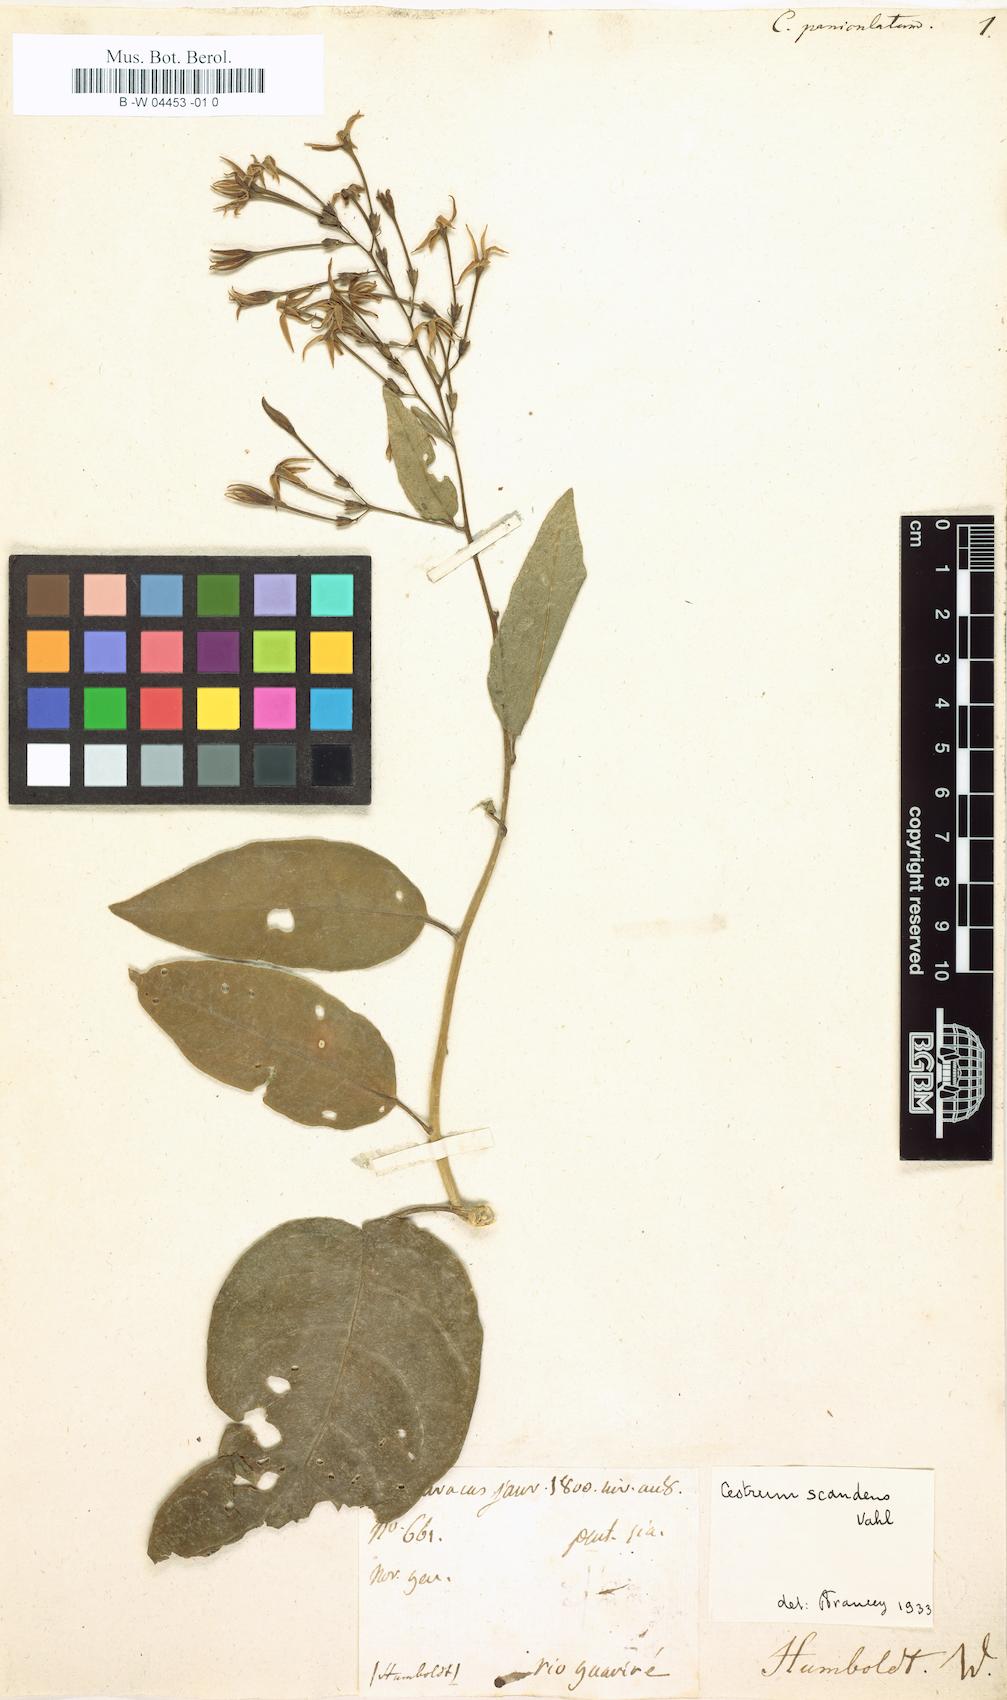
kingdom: Plantae
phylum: Tracheophyta
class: Magnoliopsida
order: Solanales
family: Solanaceae
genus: Cestrum
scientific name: Cestrum scandens
